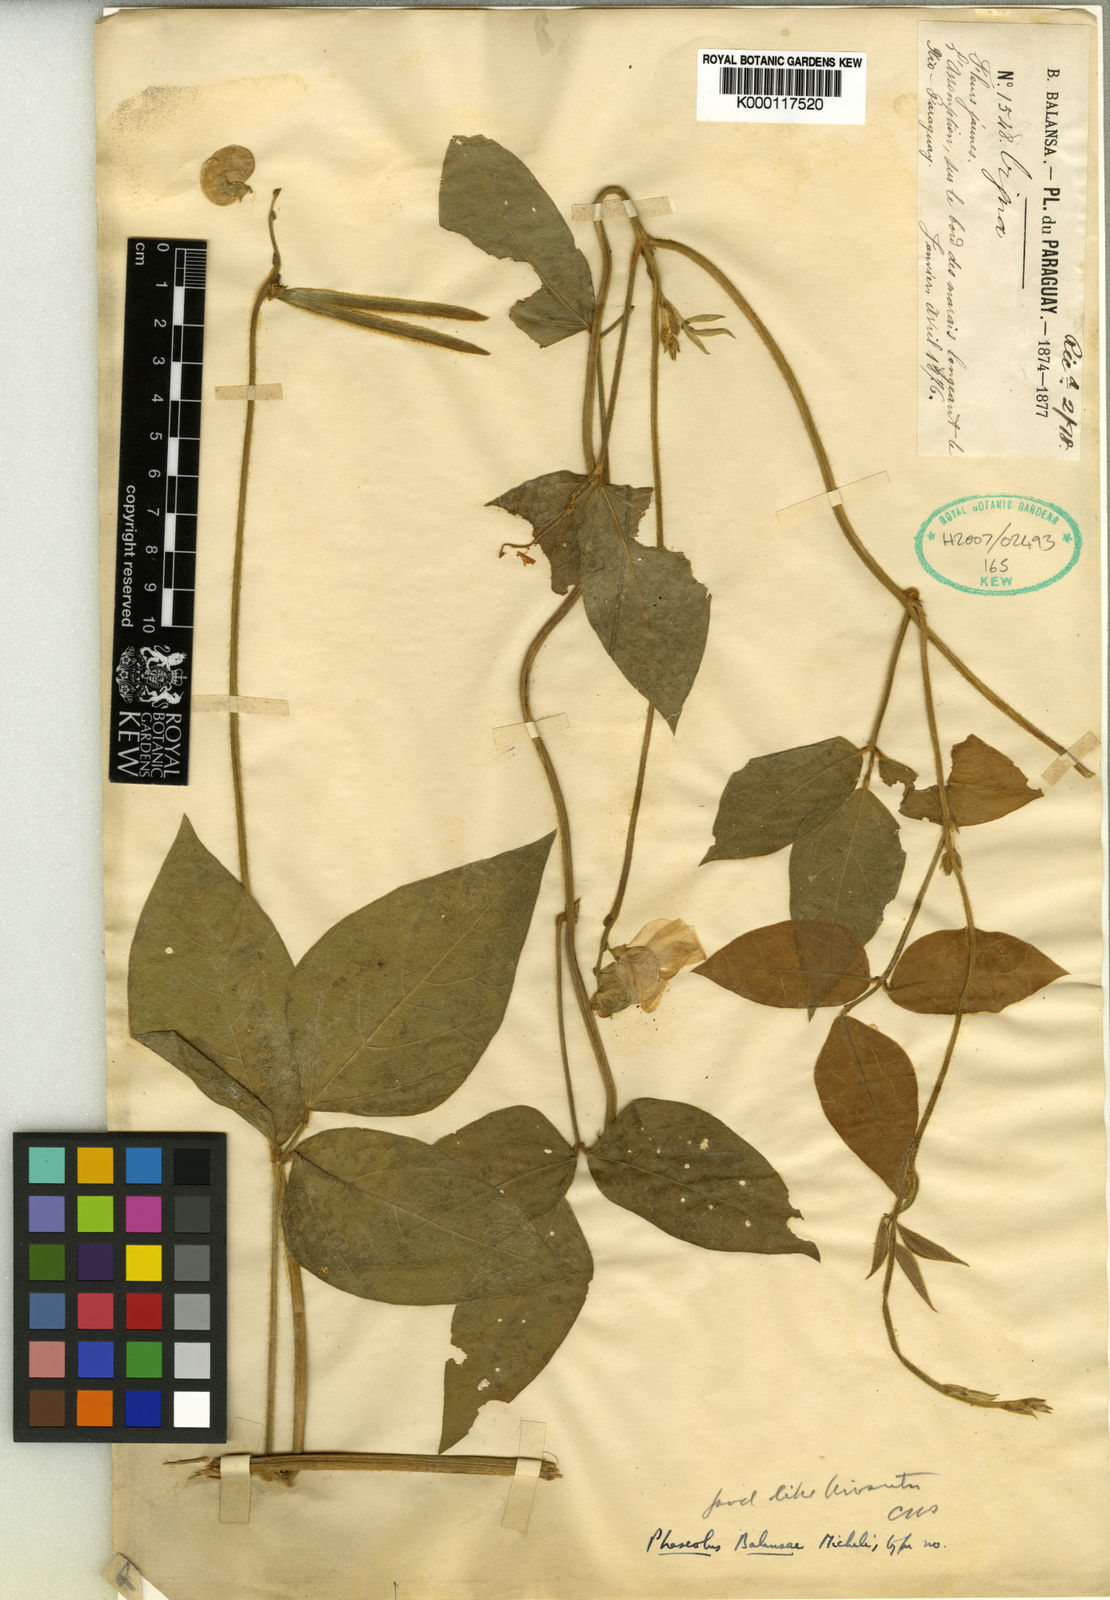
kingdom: Plantae
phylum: Tracheophyta
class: Magnoliopsida
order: Fabales
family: Fabaceae
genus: Vigna
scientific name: Vigna lasiocarpa
